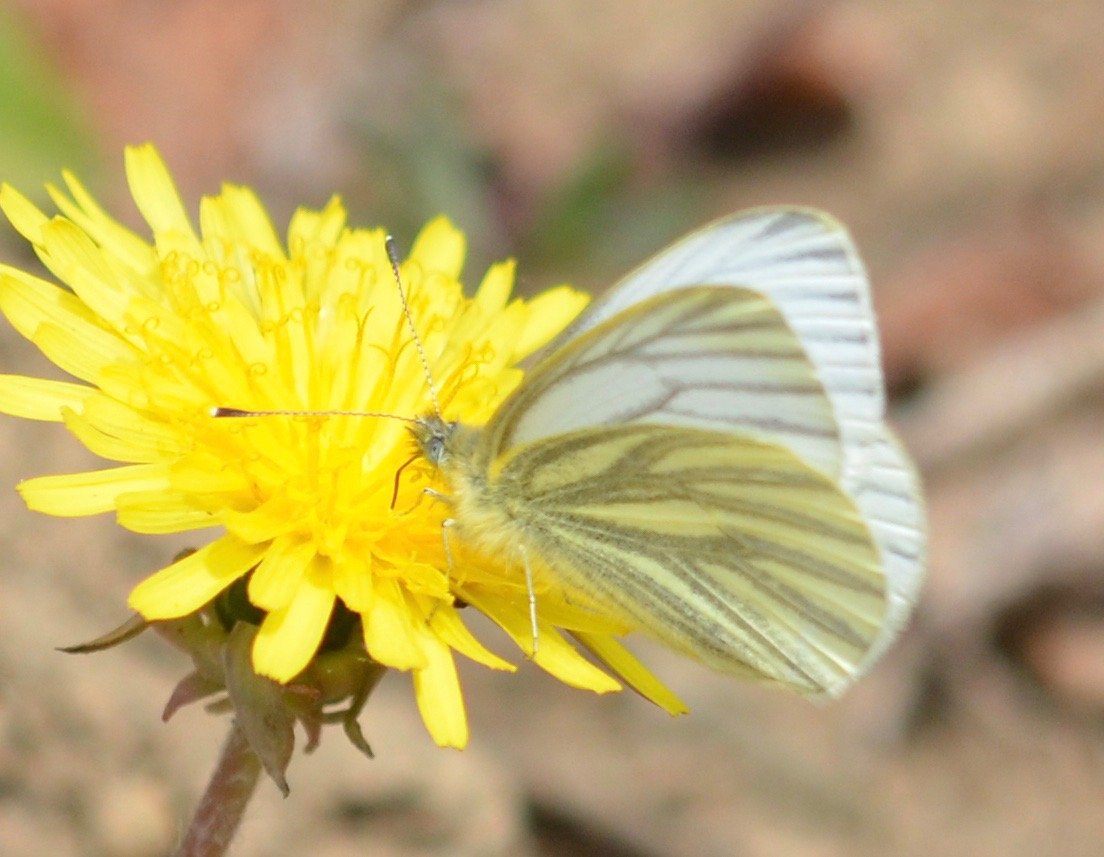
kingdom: Animalia
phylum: Arthropoda
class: Insecta
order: Lepidoptera
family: Pieridae
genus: Pieris
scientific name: Pieris angelika
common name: Arctic White
